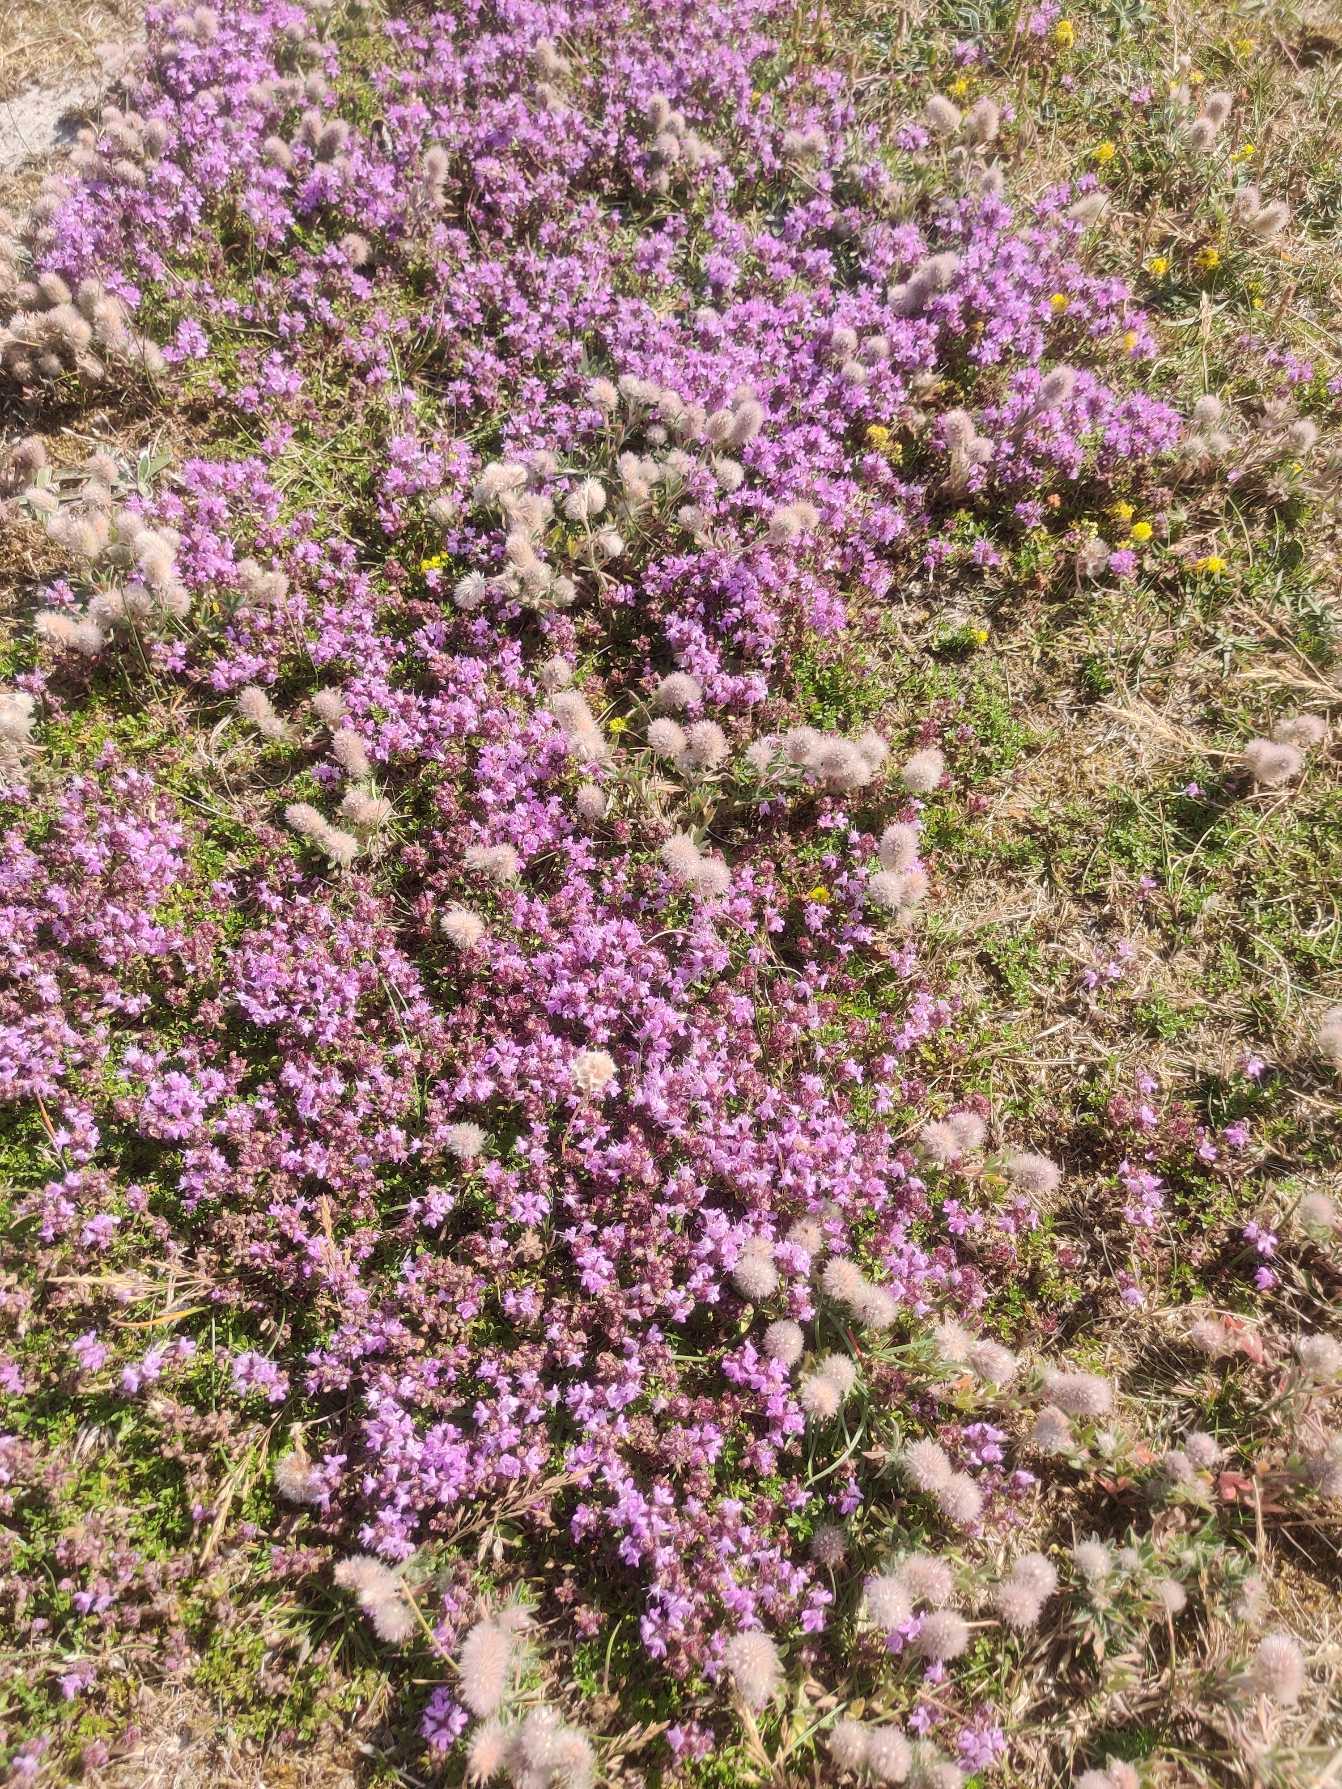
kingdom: Plantae
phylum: Tracheophyta
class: Magnoliopsida
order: Lamiales
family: Lamiaceae
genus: Thymus
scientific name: Thymus serpyllum
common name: Smalbladet timian
